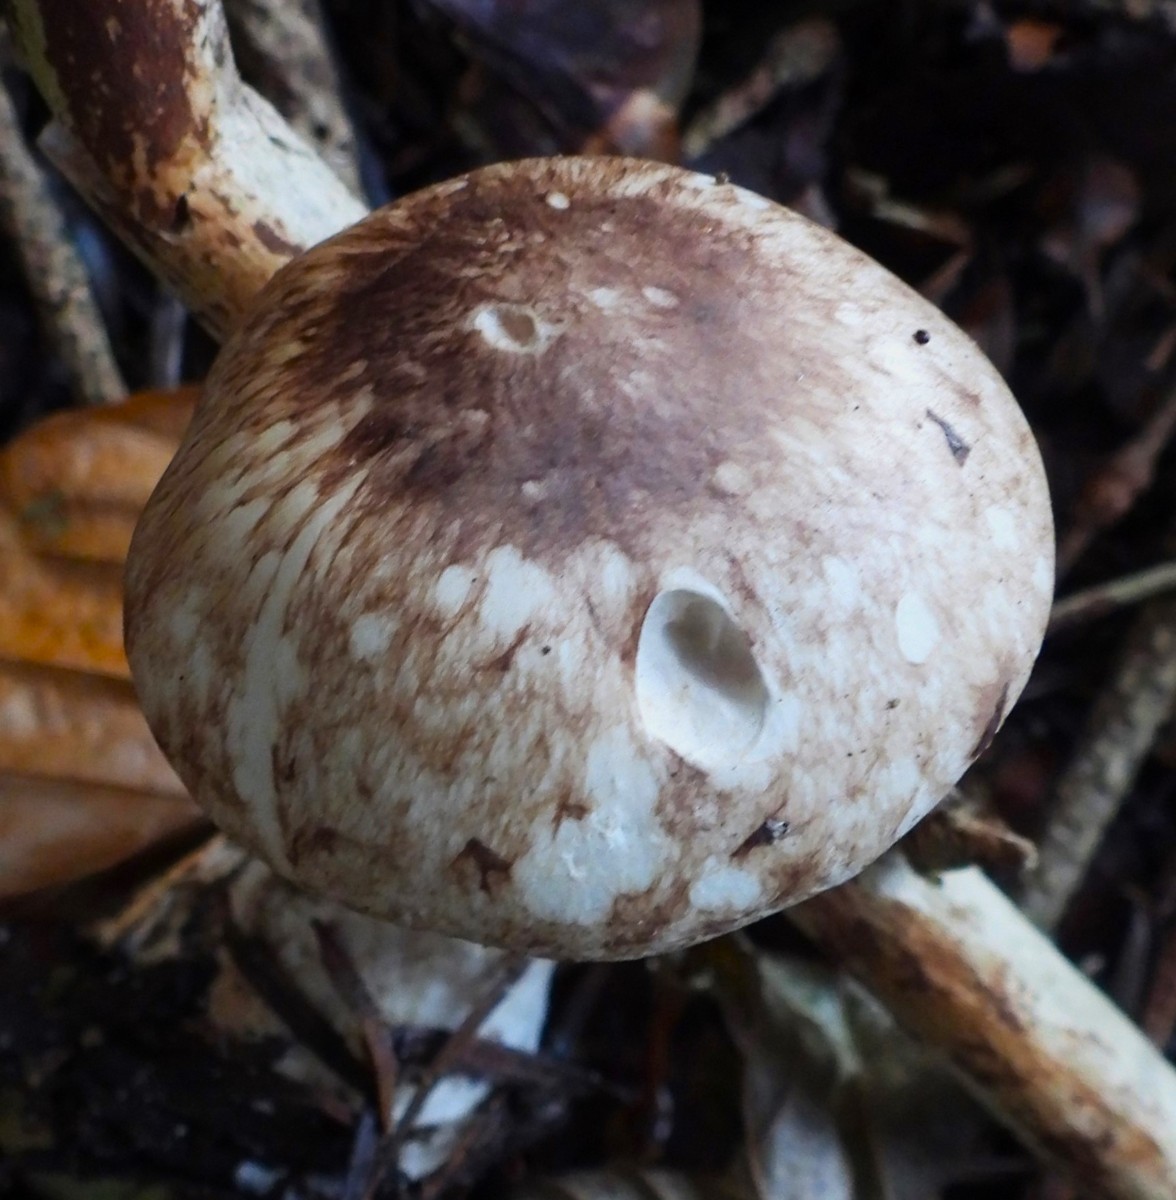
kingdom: Fungi
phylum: Basidiomycota
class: Agaricomycetes
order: Agaricales
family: Agaricaceae
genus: Agaricus
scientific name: Agaricus impudicus
